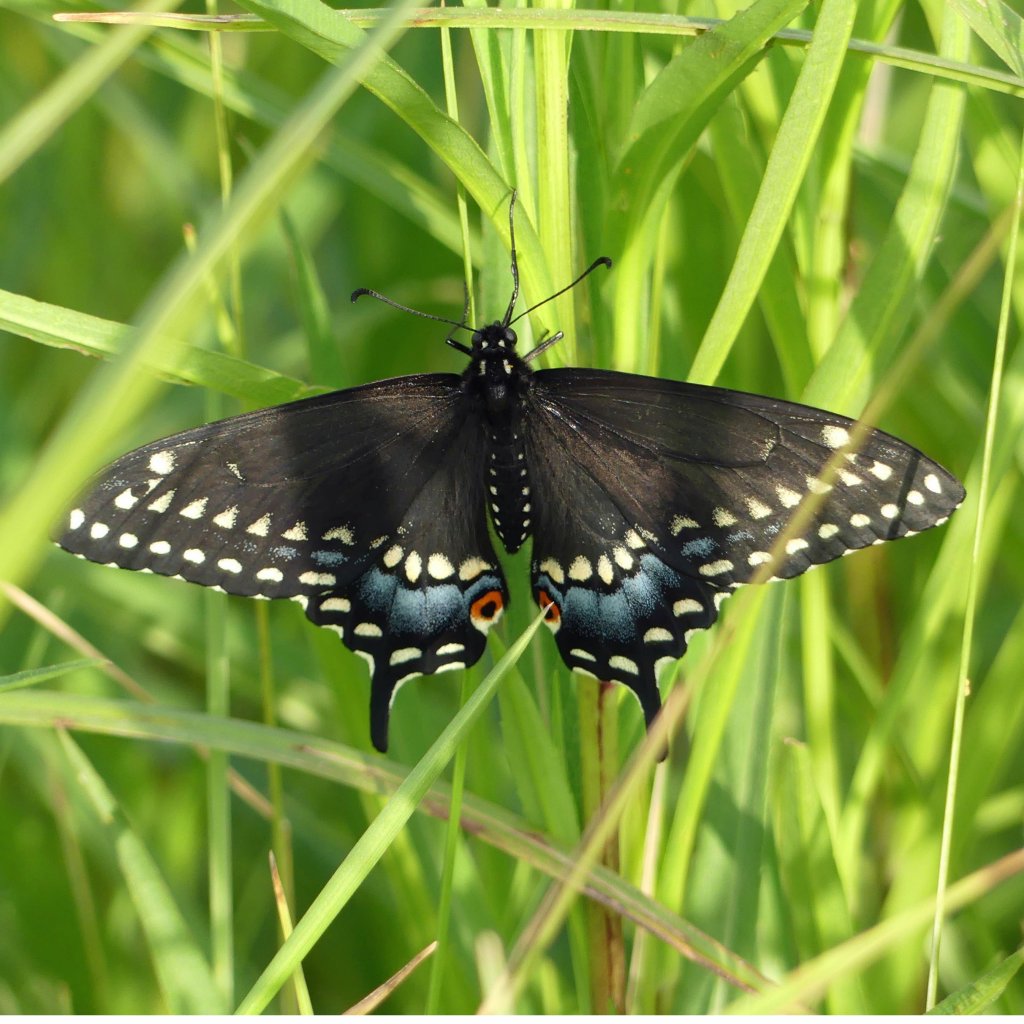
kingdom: Animalia
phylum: Arthropoda
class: Insecta
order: Lepidoptera
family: Papilionidae
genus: Papilio
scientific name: Papilio polyxenes
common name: Black Swallowtail
